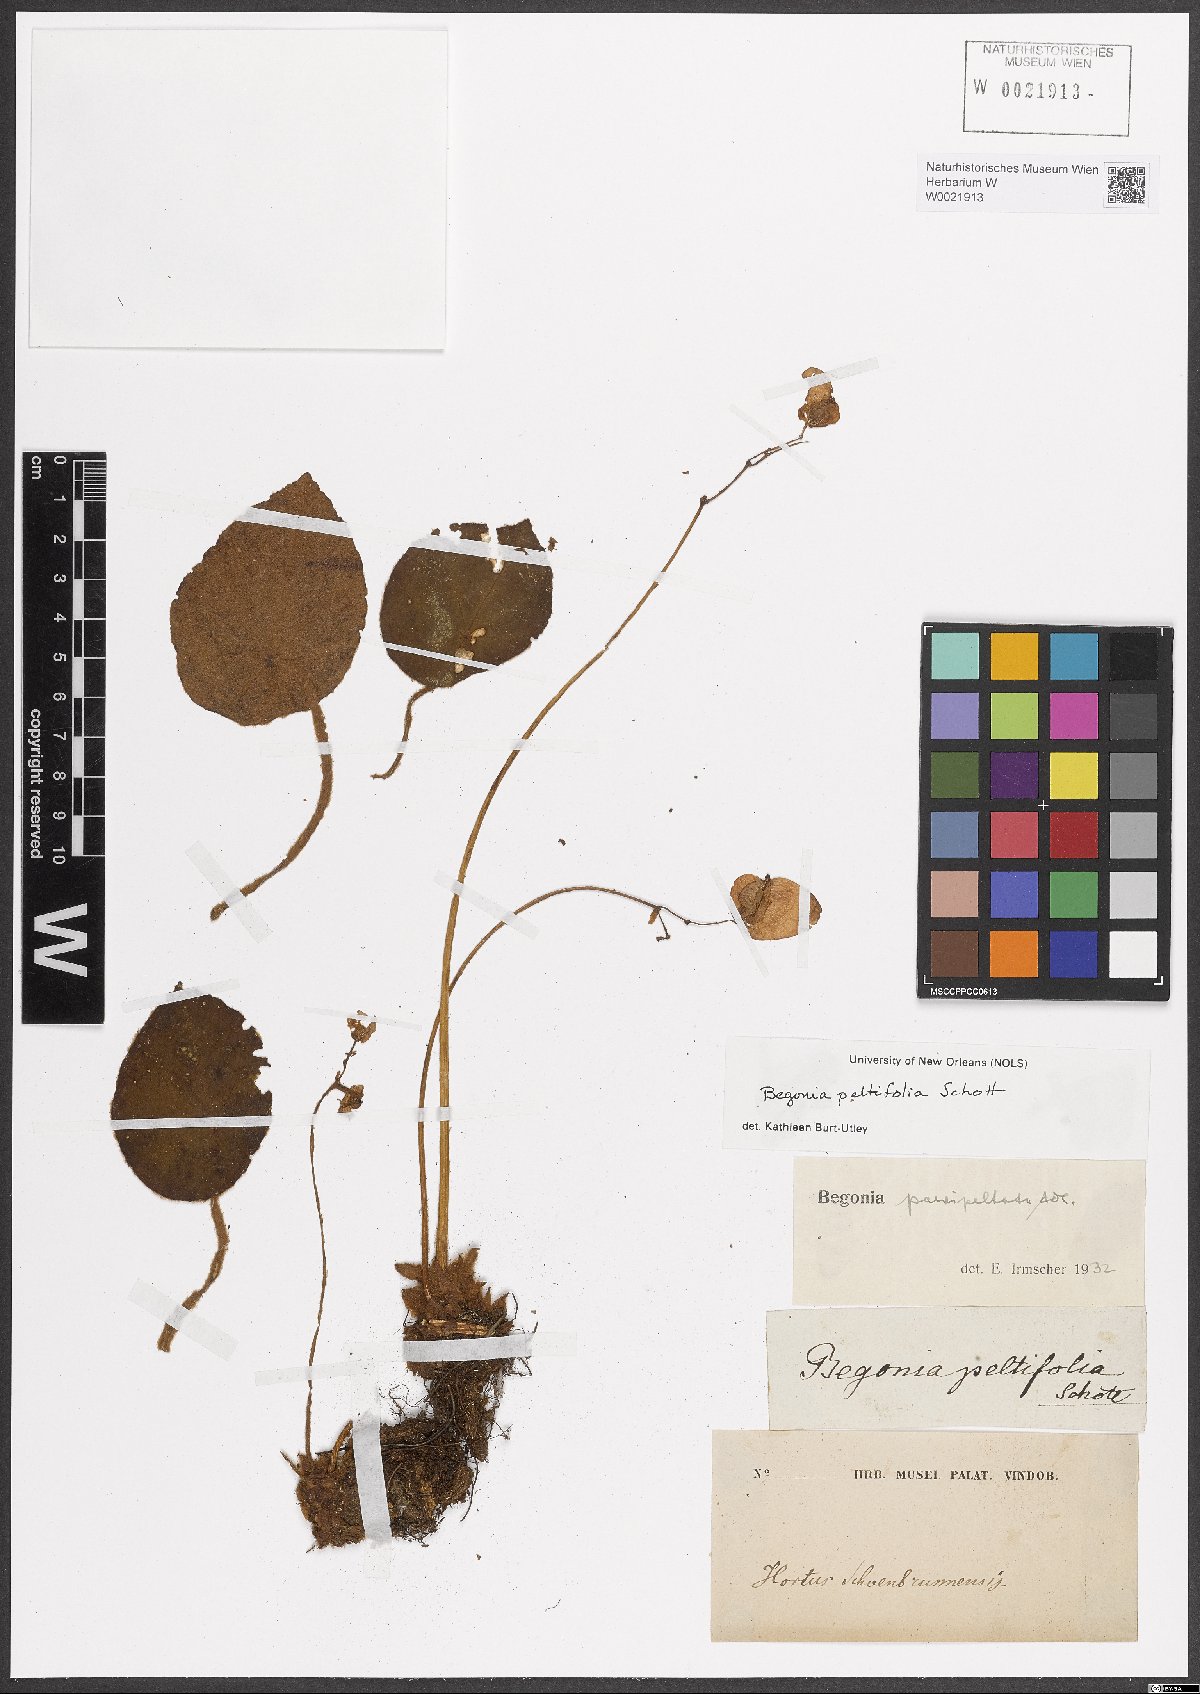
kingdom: Plantae
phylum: Tracheophyta
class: Magnoliopsida
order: Cucurbitales
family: Begoniaceae
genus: Begonia
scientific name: Begonia peltifolia
